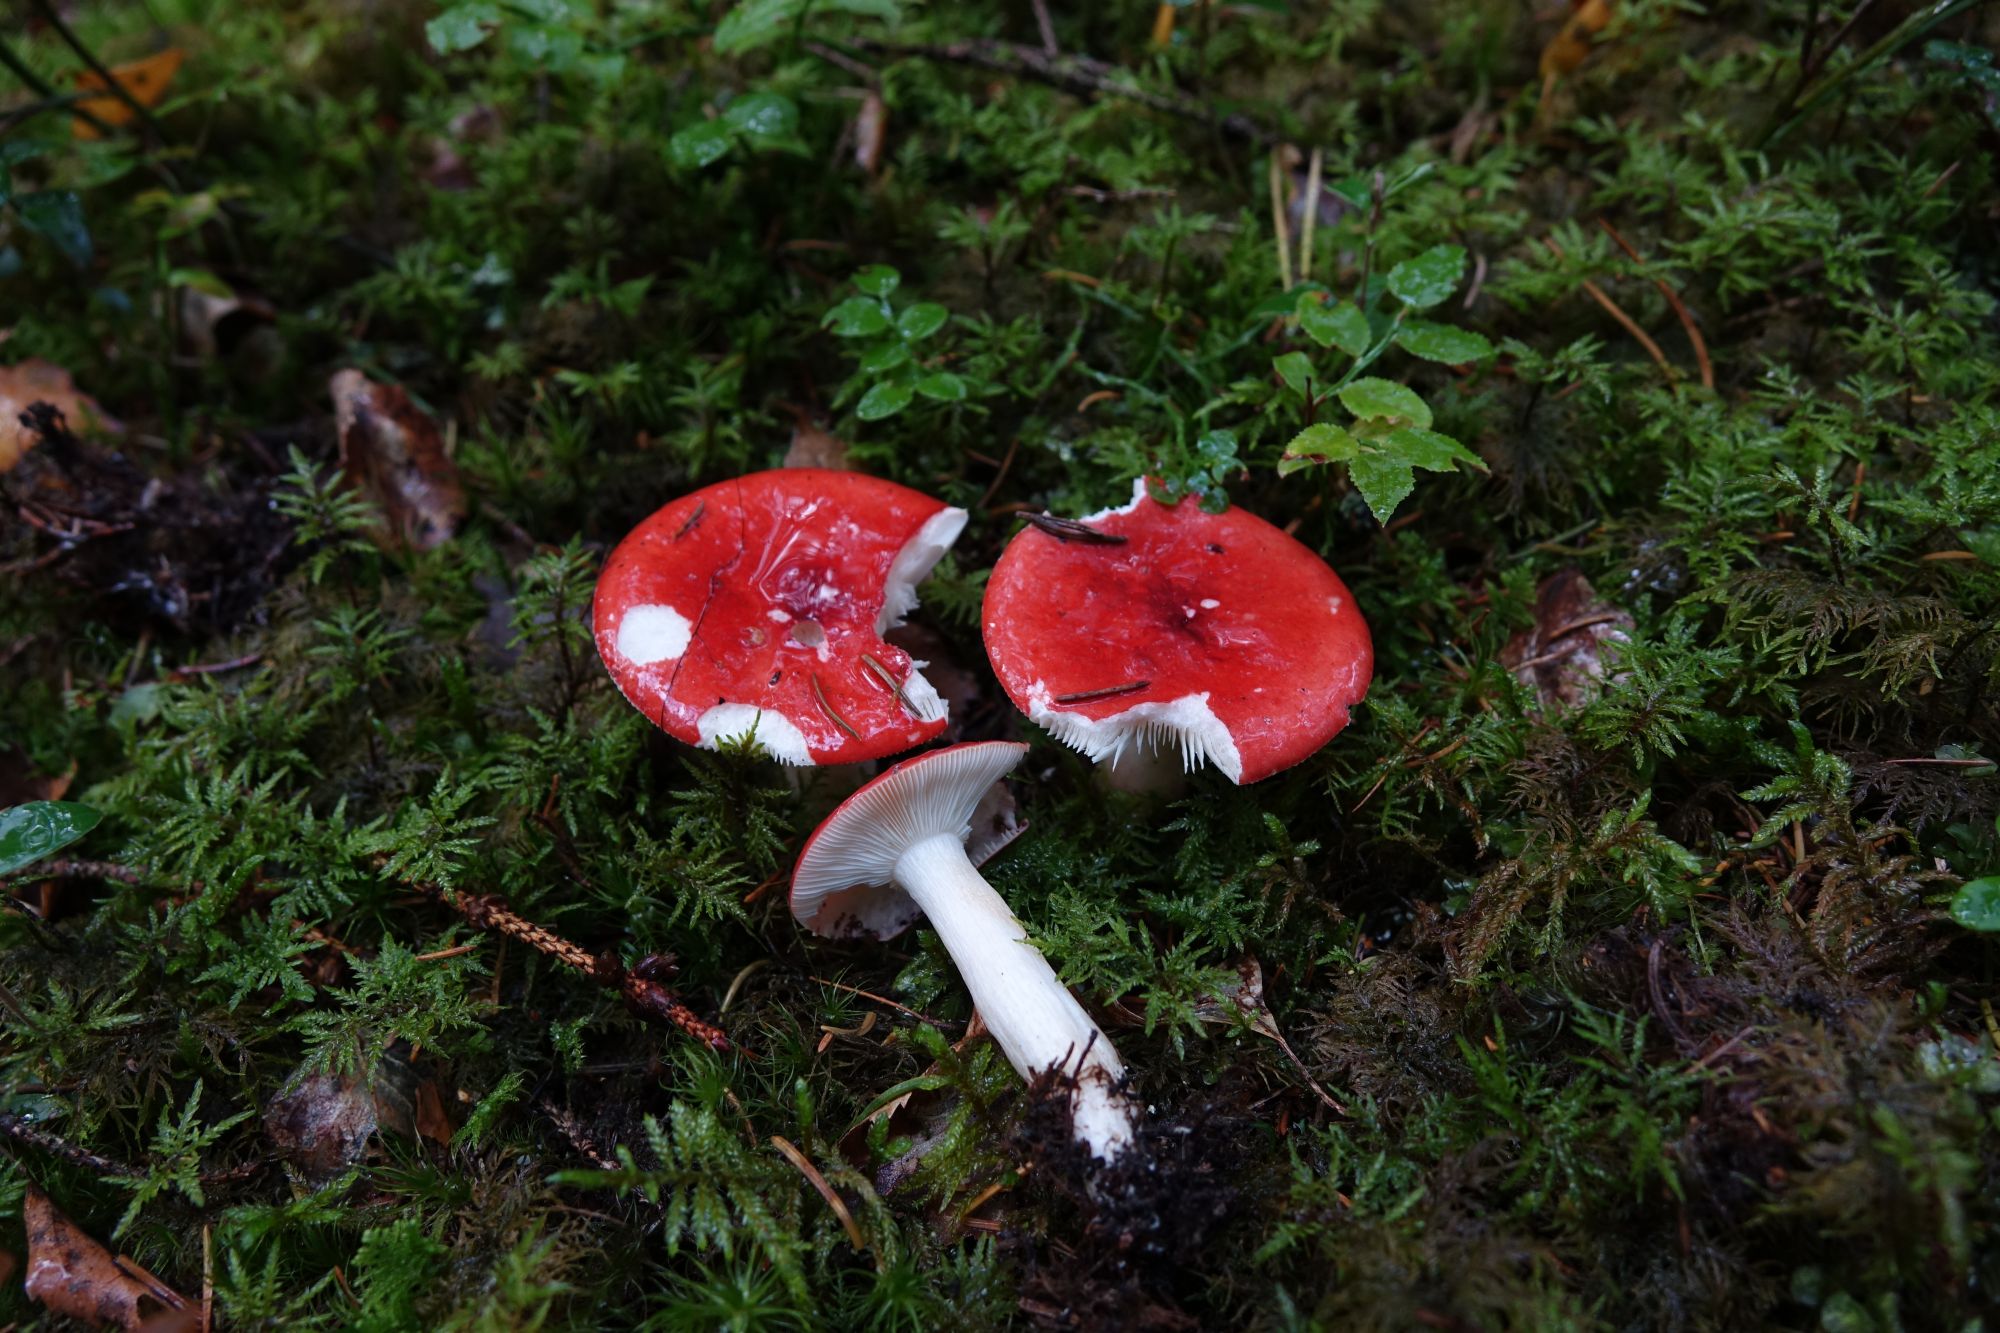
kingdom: Fungi
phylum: Basidiomycota
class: Agaricomycetes
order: Russulales
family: Russulaceae
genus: Russula
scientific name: Russula emetica
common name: Sickener
